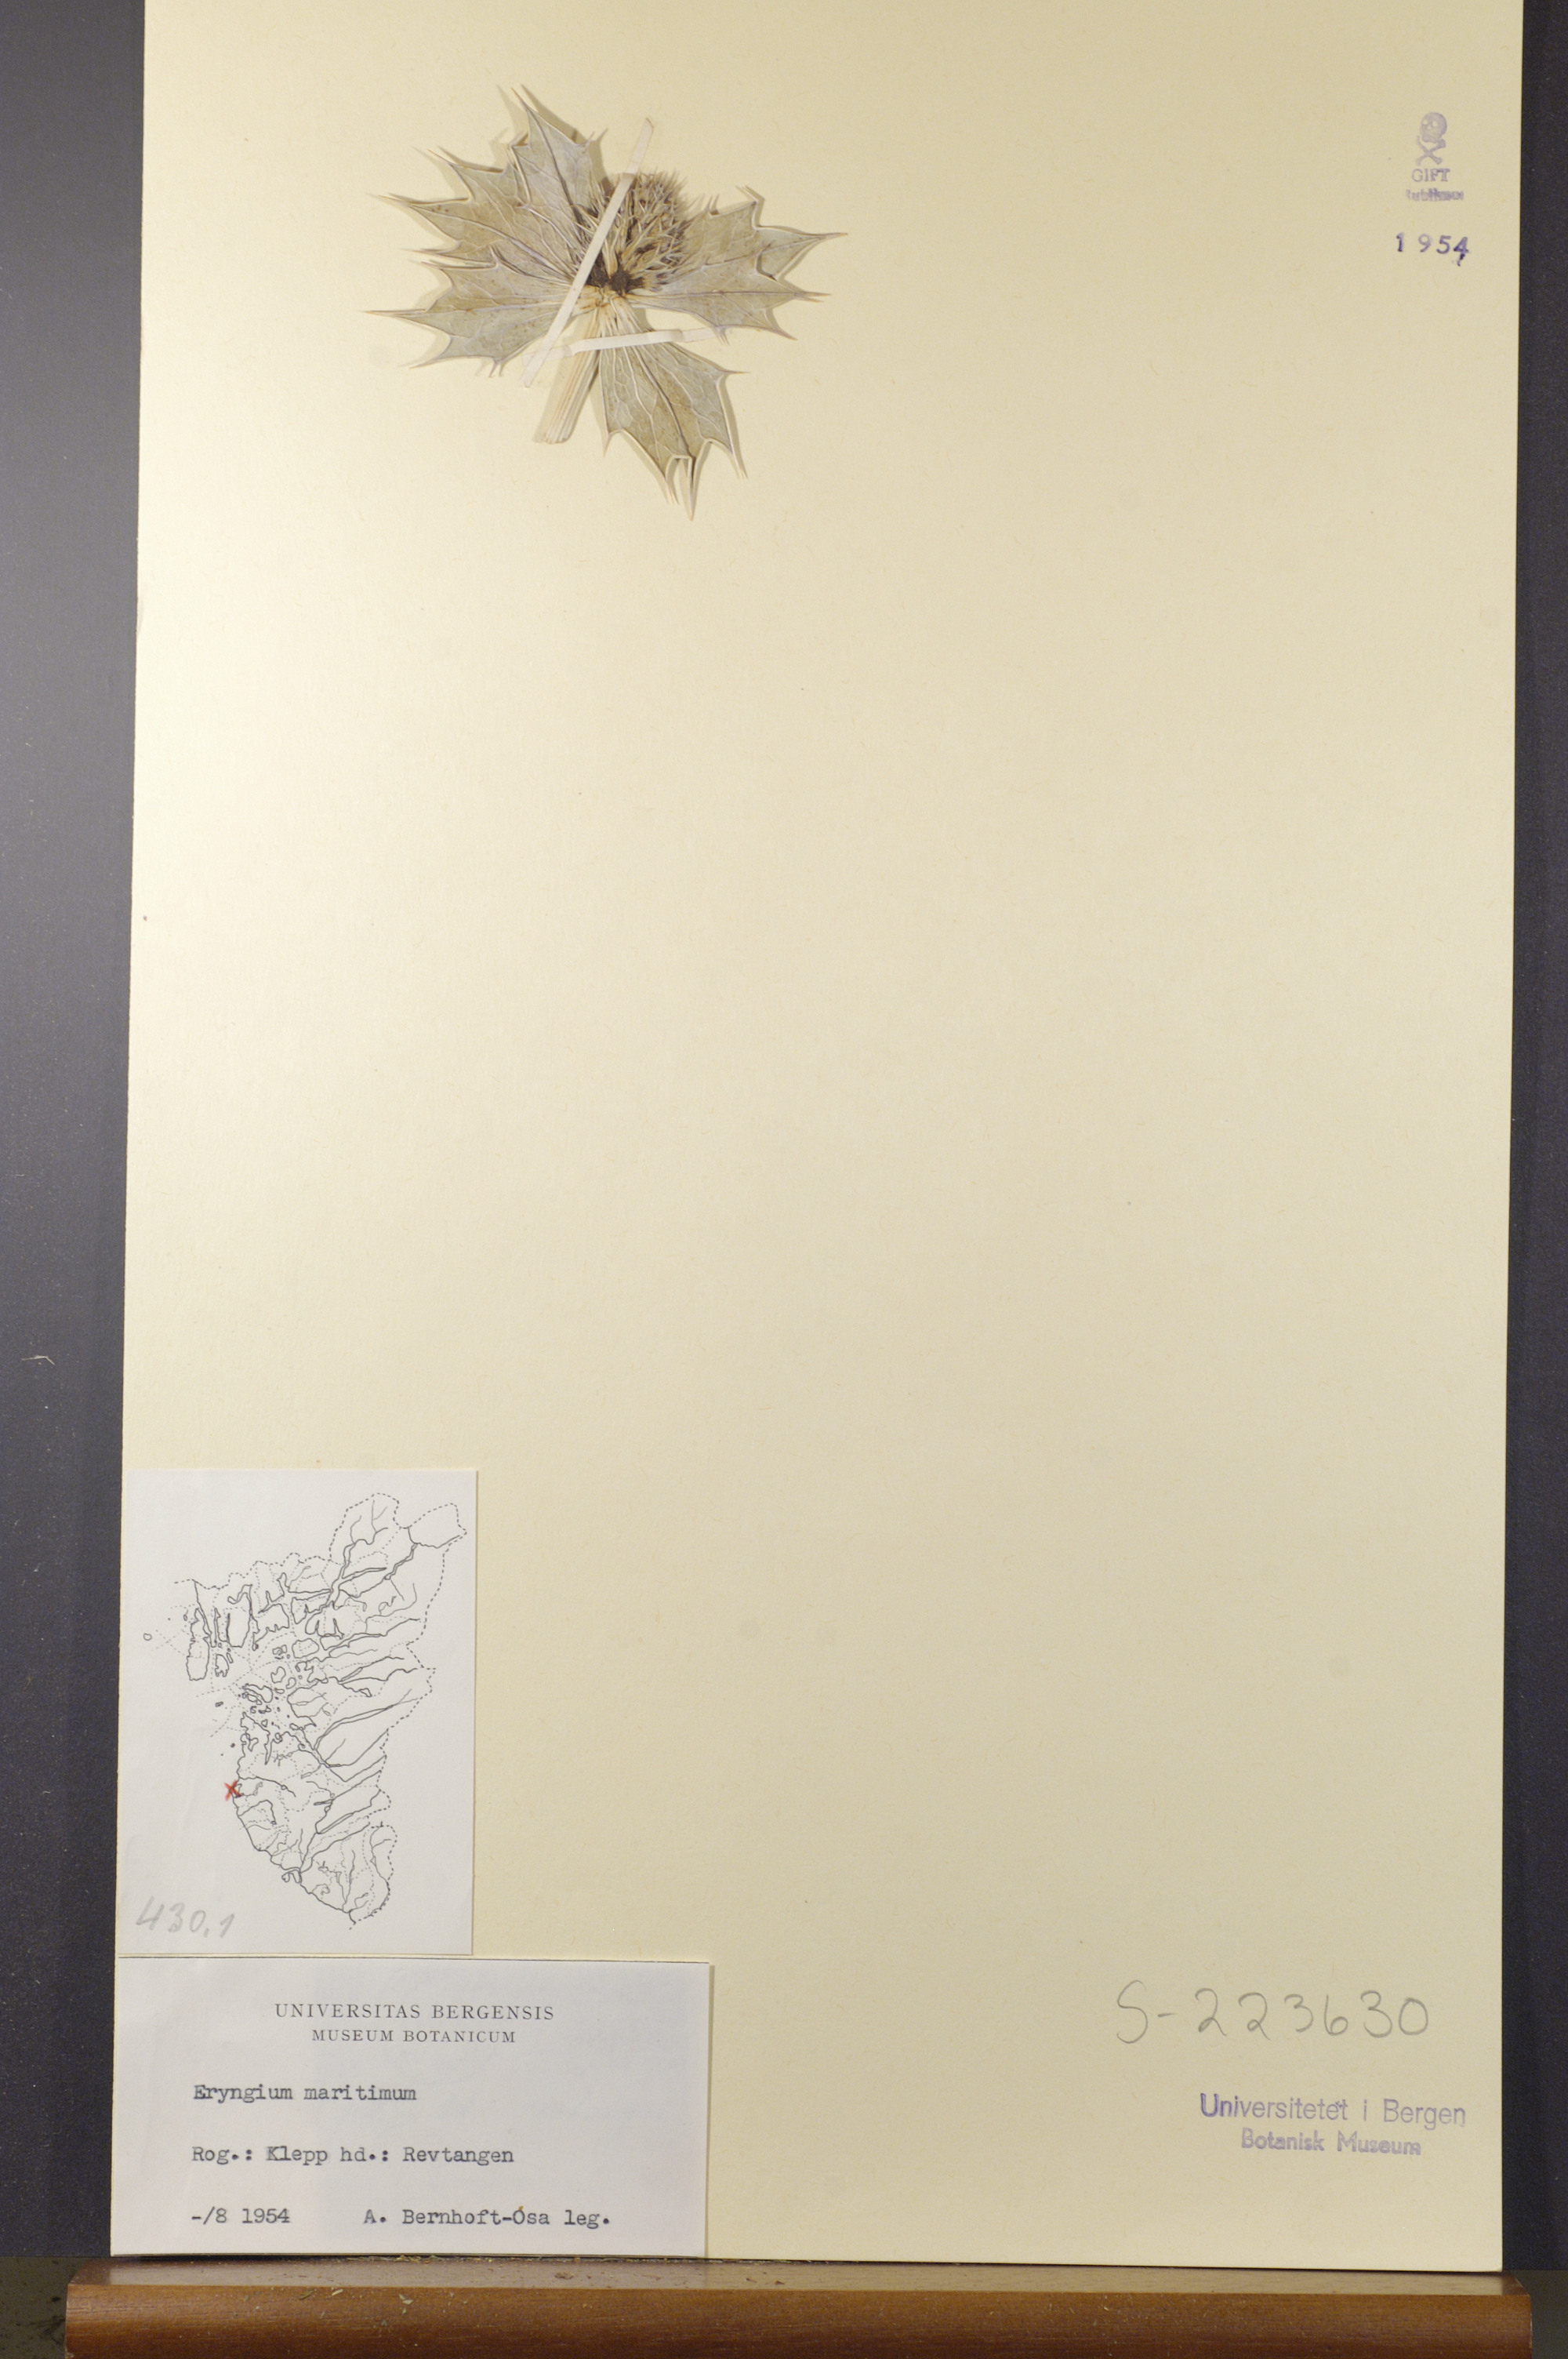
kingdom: Plantae
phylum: Tracheophyta
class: Magnoliopsida
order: Apiales
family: Apiaceae
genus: Eryngium
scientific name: Eryngium maritimum
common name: Sea-holly
